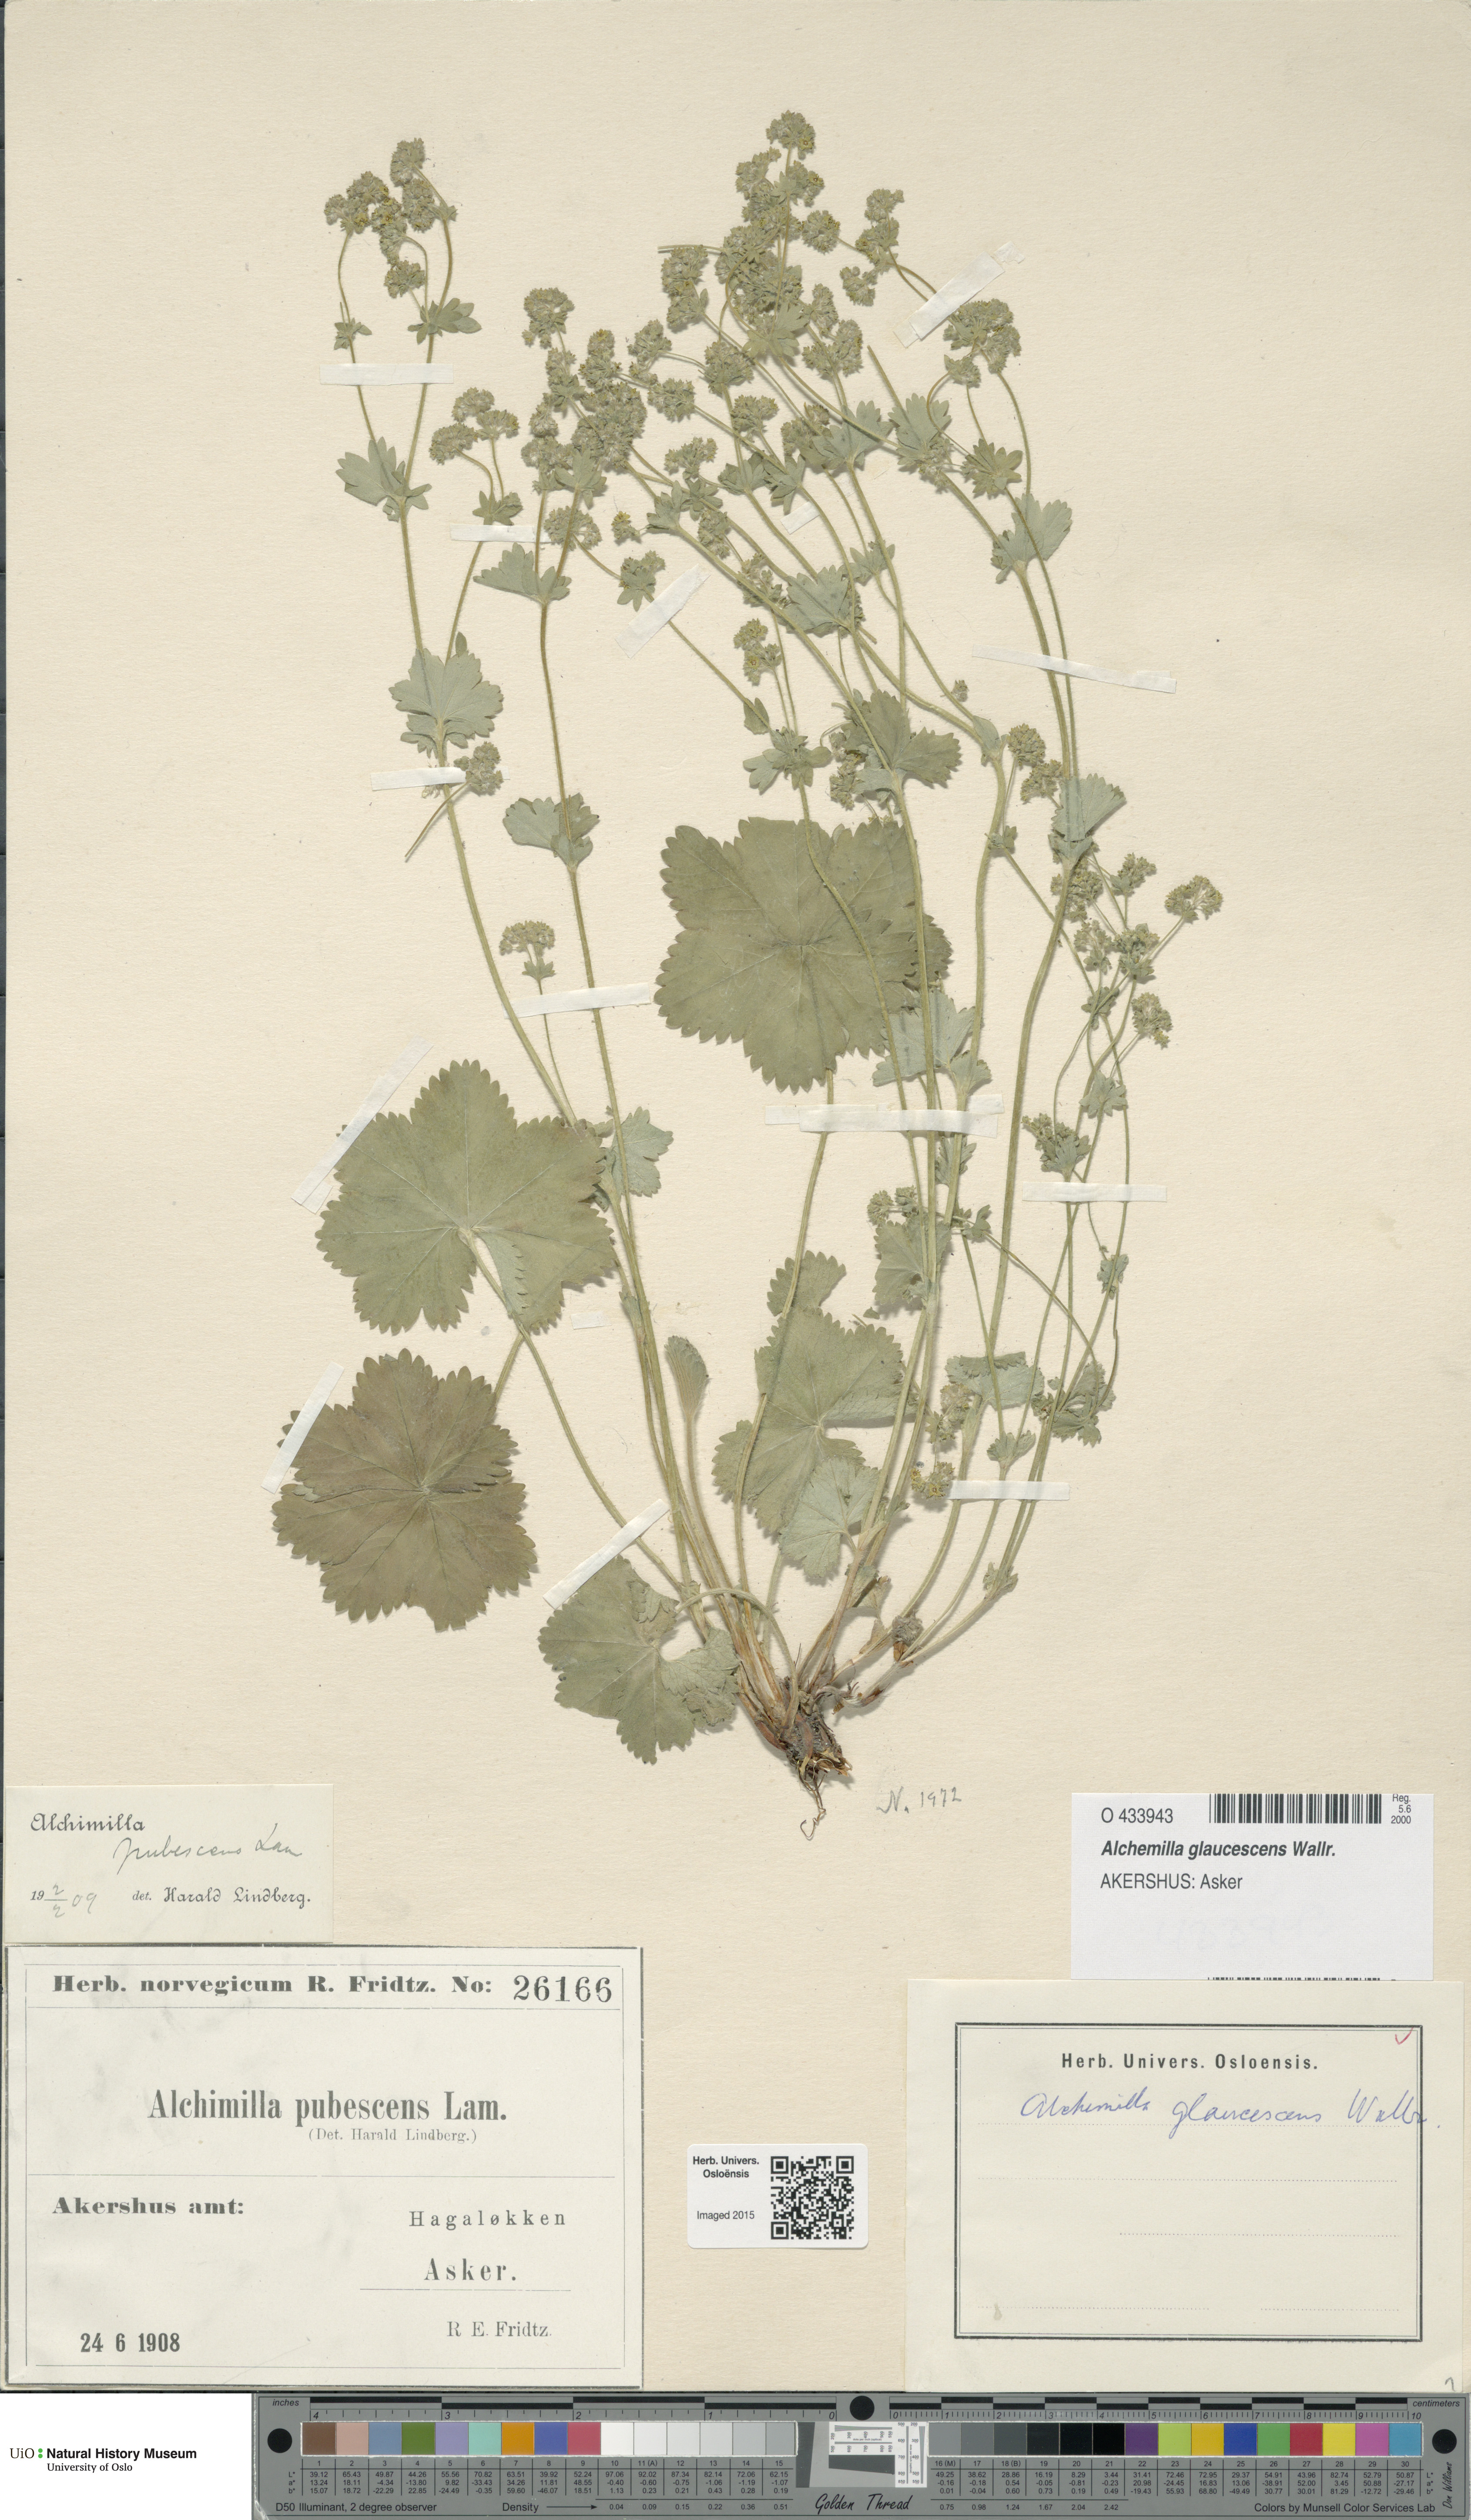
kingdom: Plantae
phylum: Tracheophyta
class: Magnoliopsida
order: Rosales
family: Rosaceae
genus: Alchemilla
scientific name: Alchemilla glaucescens
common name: Silky lady's mantle
